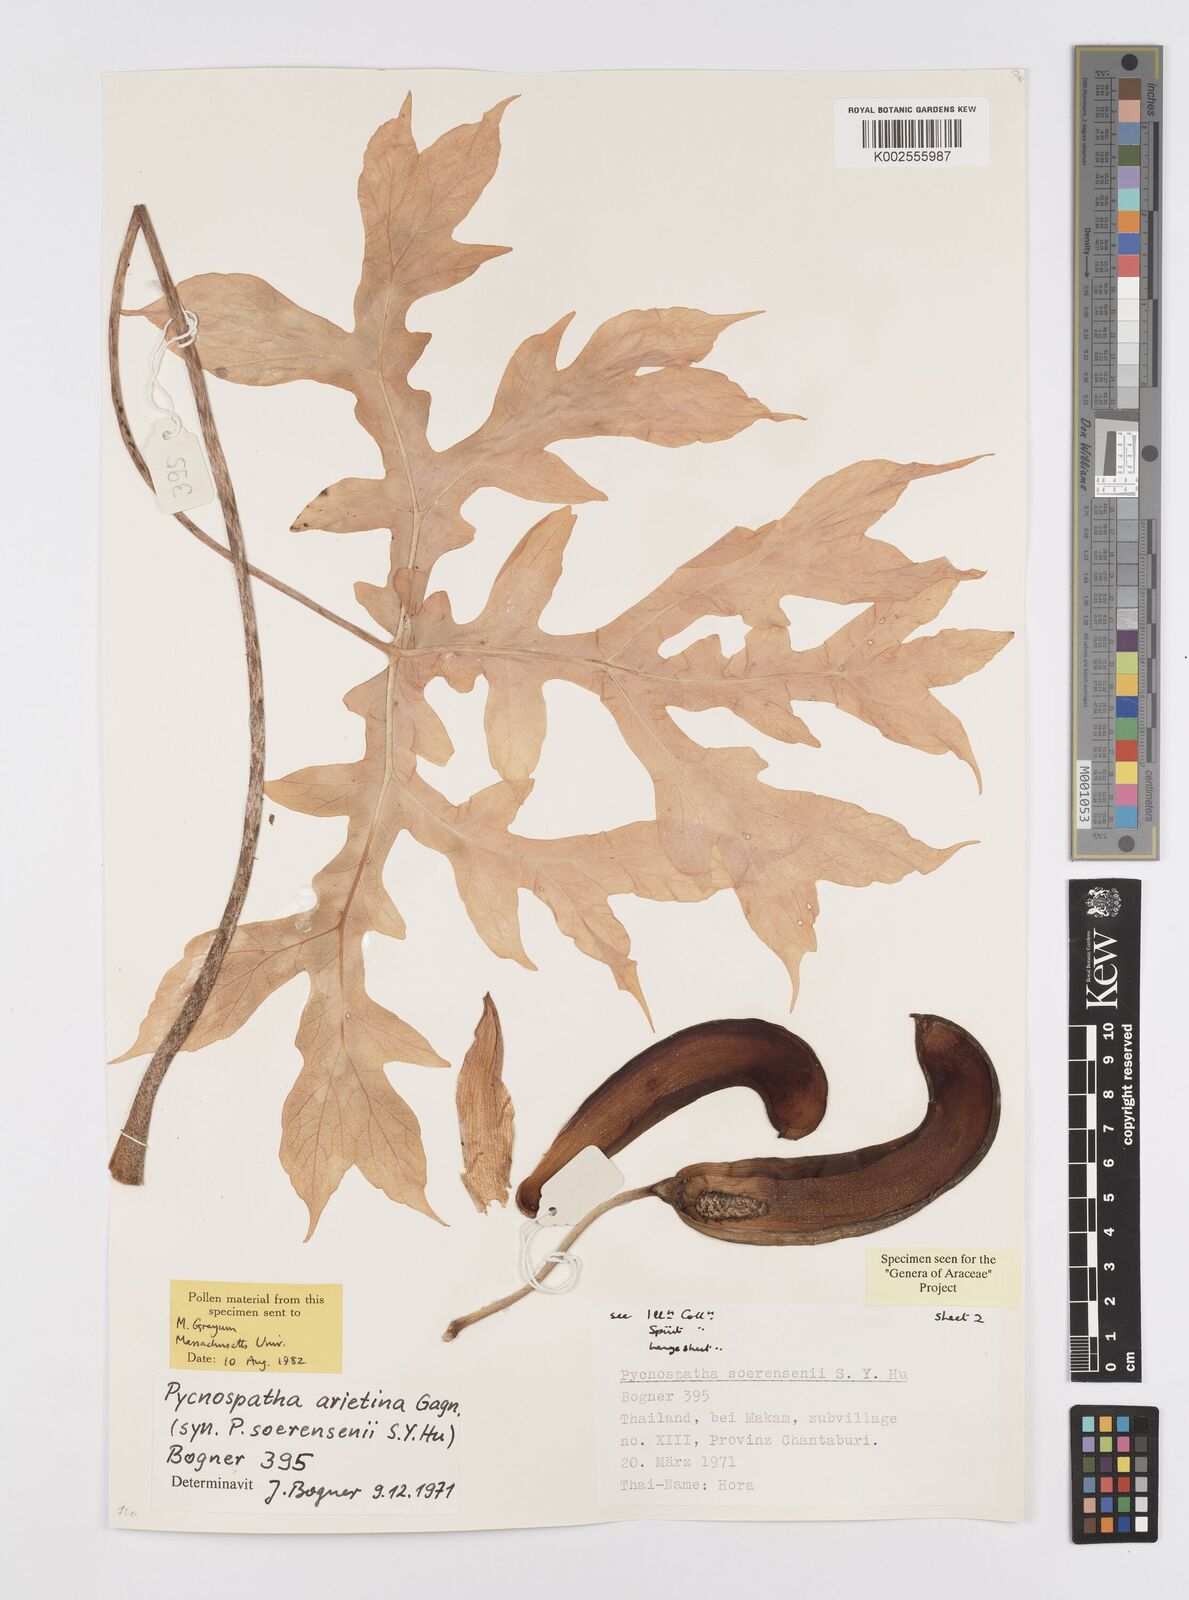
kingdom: Plantae
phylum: Tracheophyta
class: Liliopsida
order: Alismatales
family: Araceae
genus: Pycnospatha
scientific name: Pycnospatha arietina
